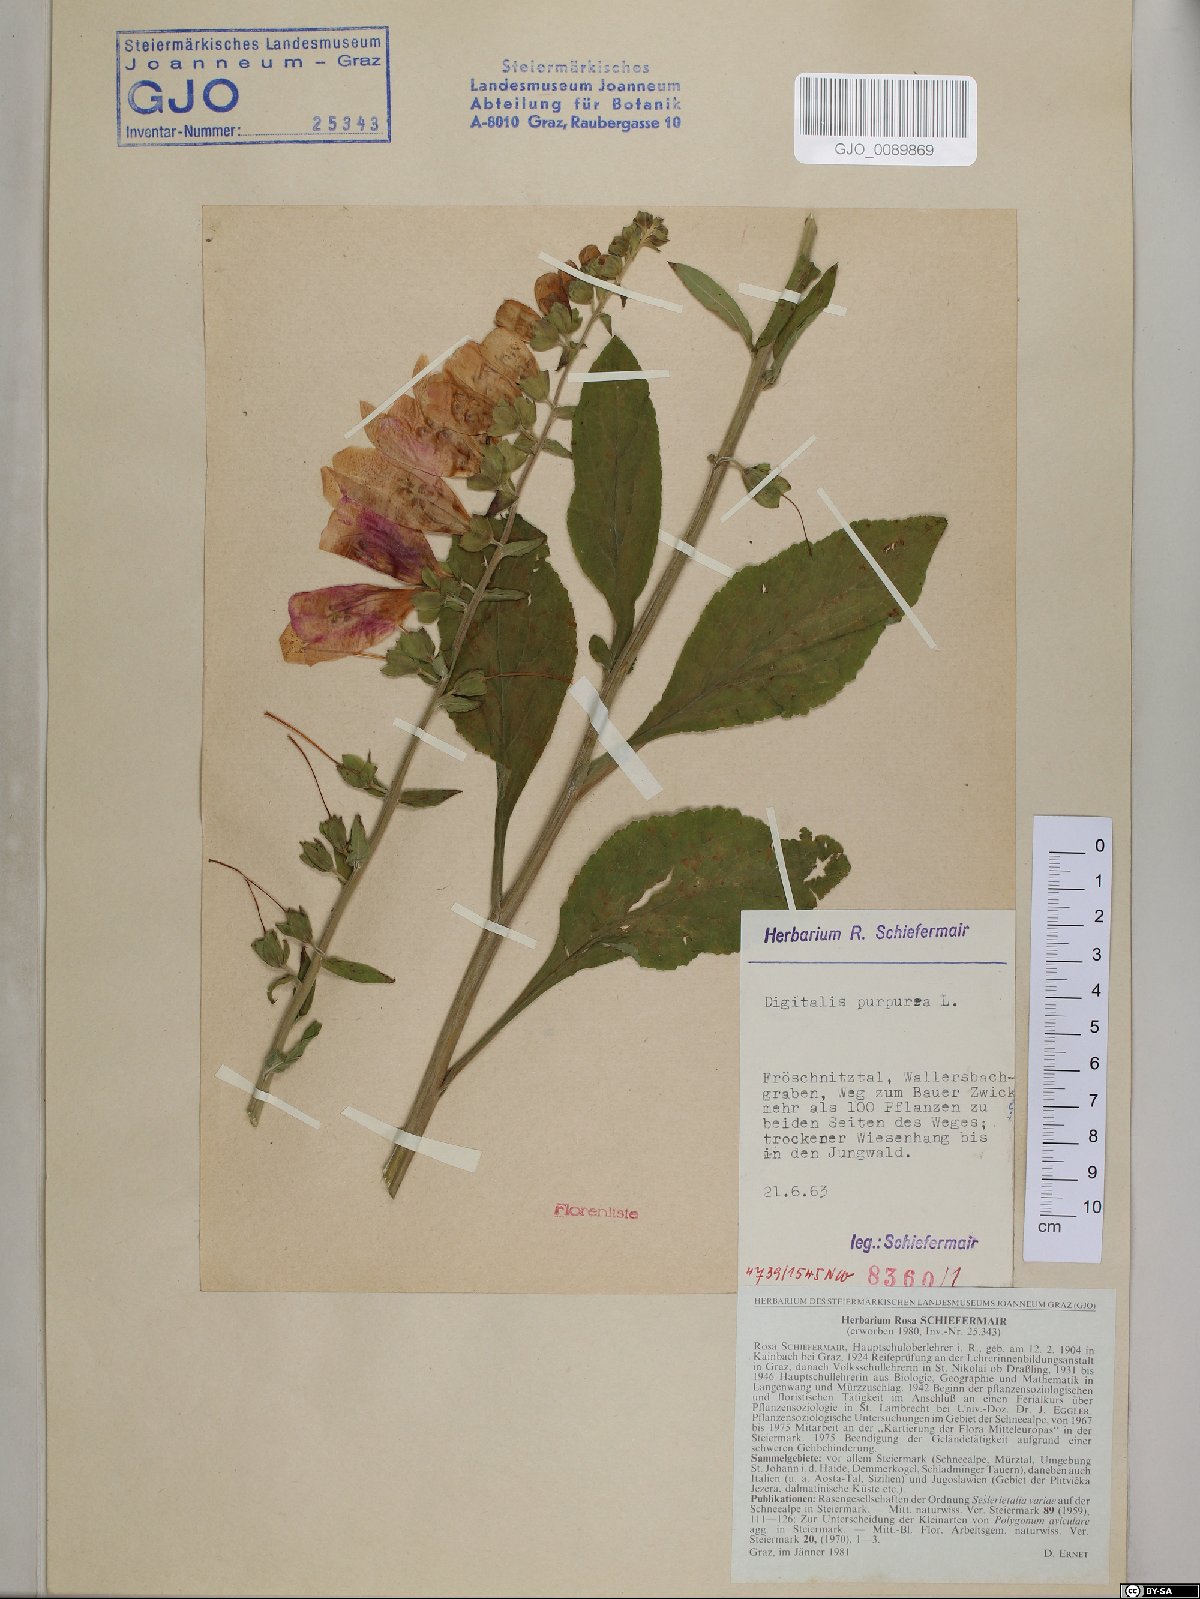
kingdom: Plantae
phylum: Tracheophyta
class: Magnoliopsida
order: Lamiales
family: Plantaginaceae
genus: Digitalis
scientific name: Digitalis purpurea
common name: Foxglove
